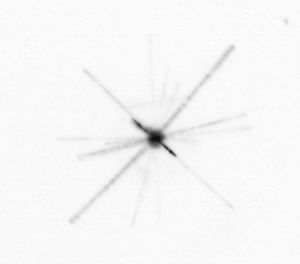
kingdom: Chromista
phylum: Ochrophyta
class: Bacillariophyceae
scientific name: Bacillariophyceae
